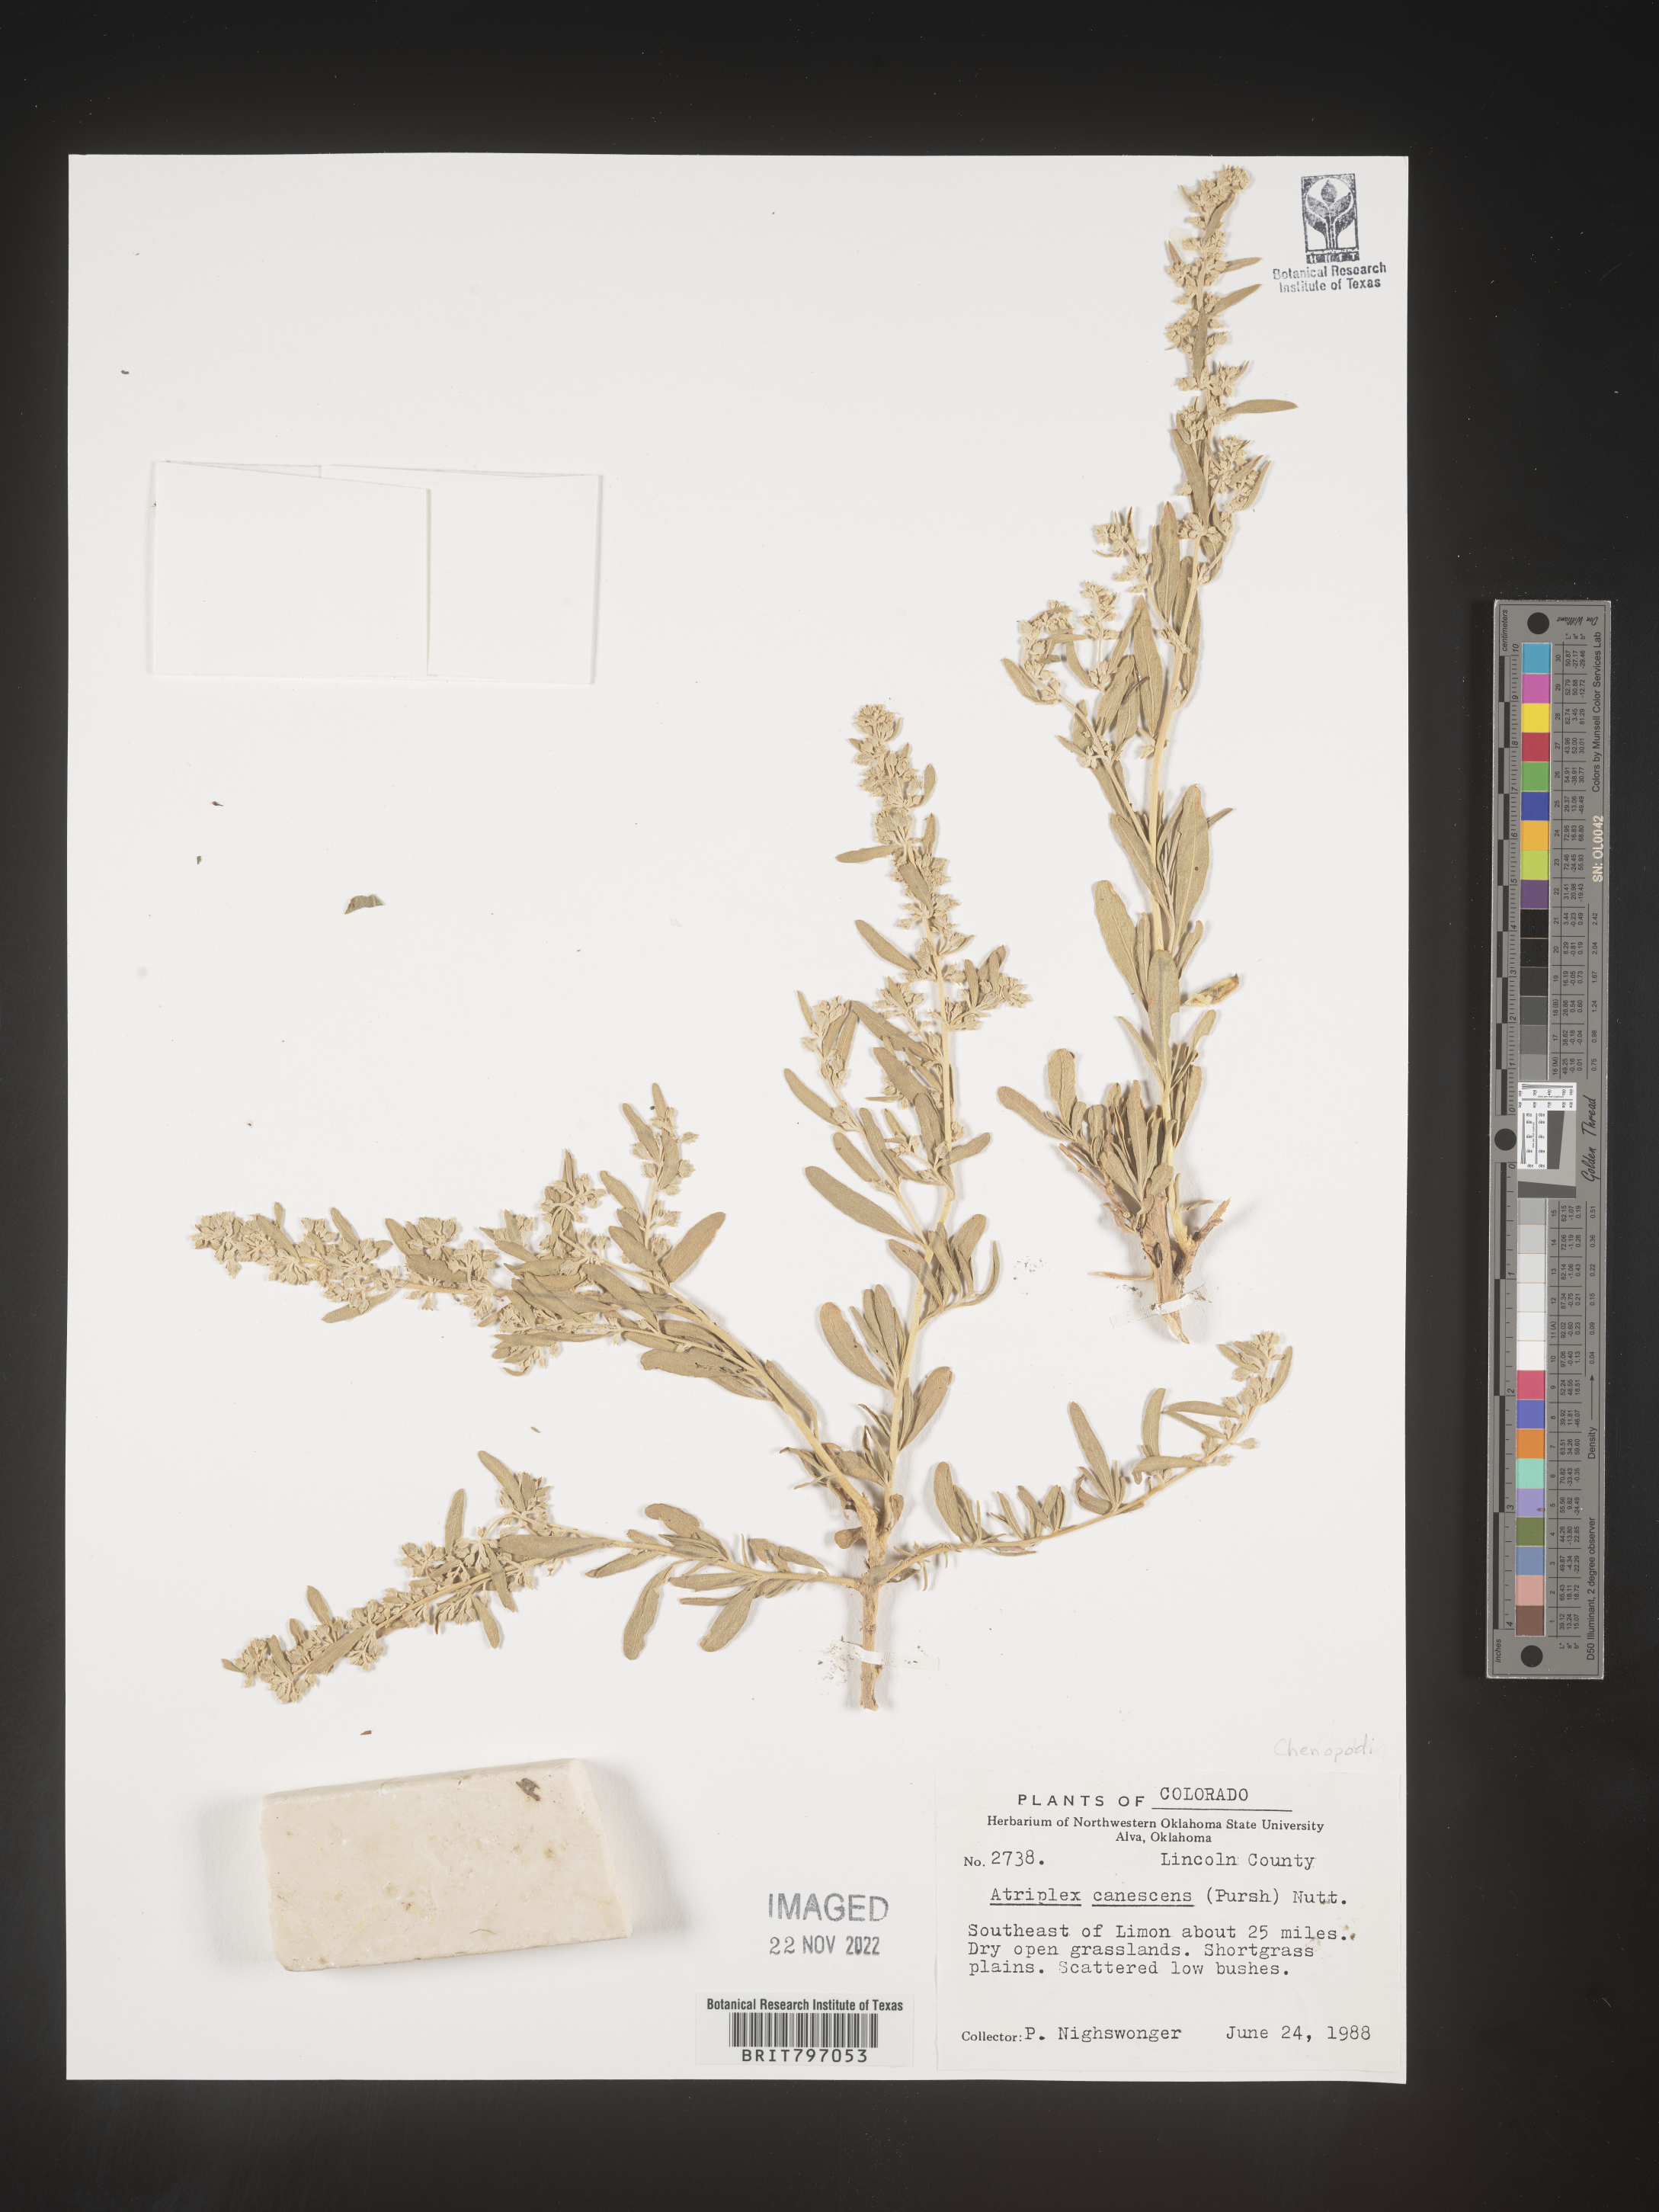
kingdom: Plantae
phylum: Tracheophyta
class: Magnoliopsida
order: Caryophyllales
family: Amaranthaceae
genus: Atriplex
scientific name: Atriplex canescens
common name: Four-wing saltbush
